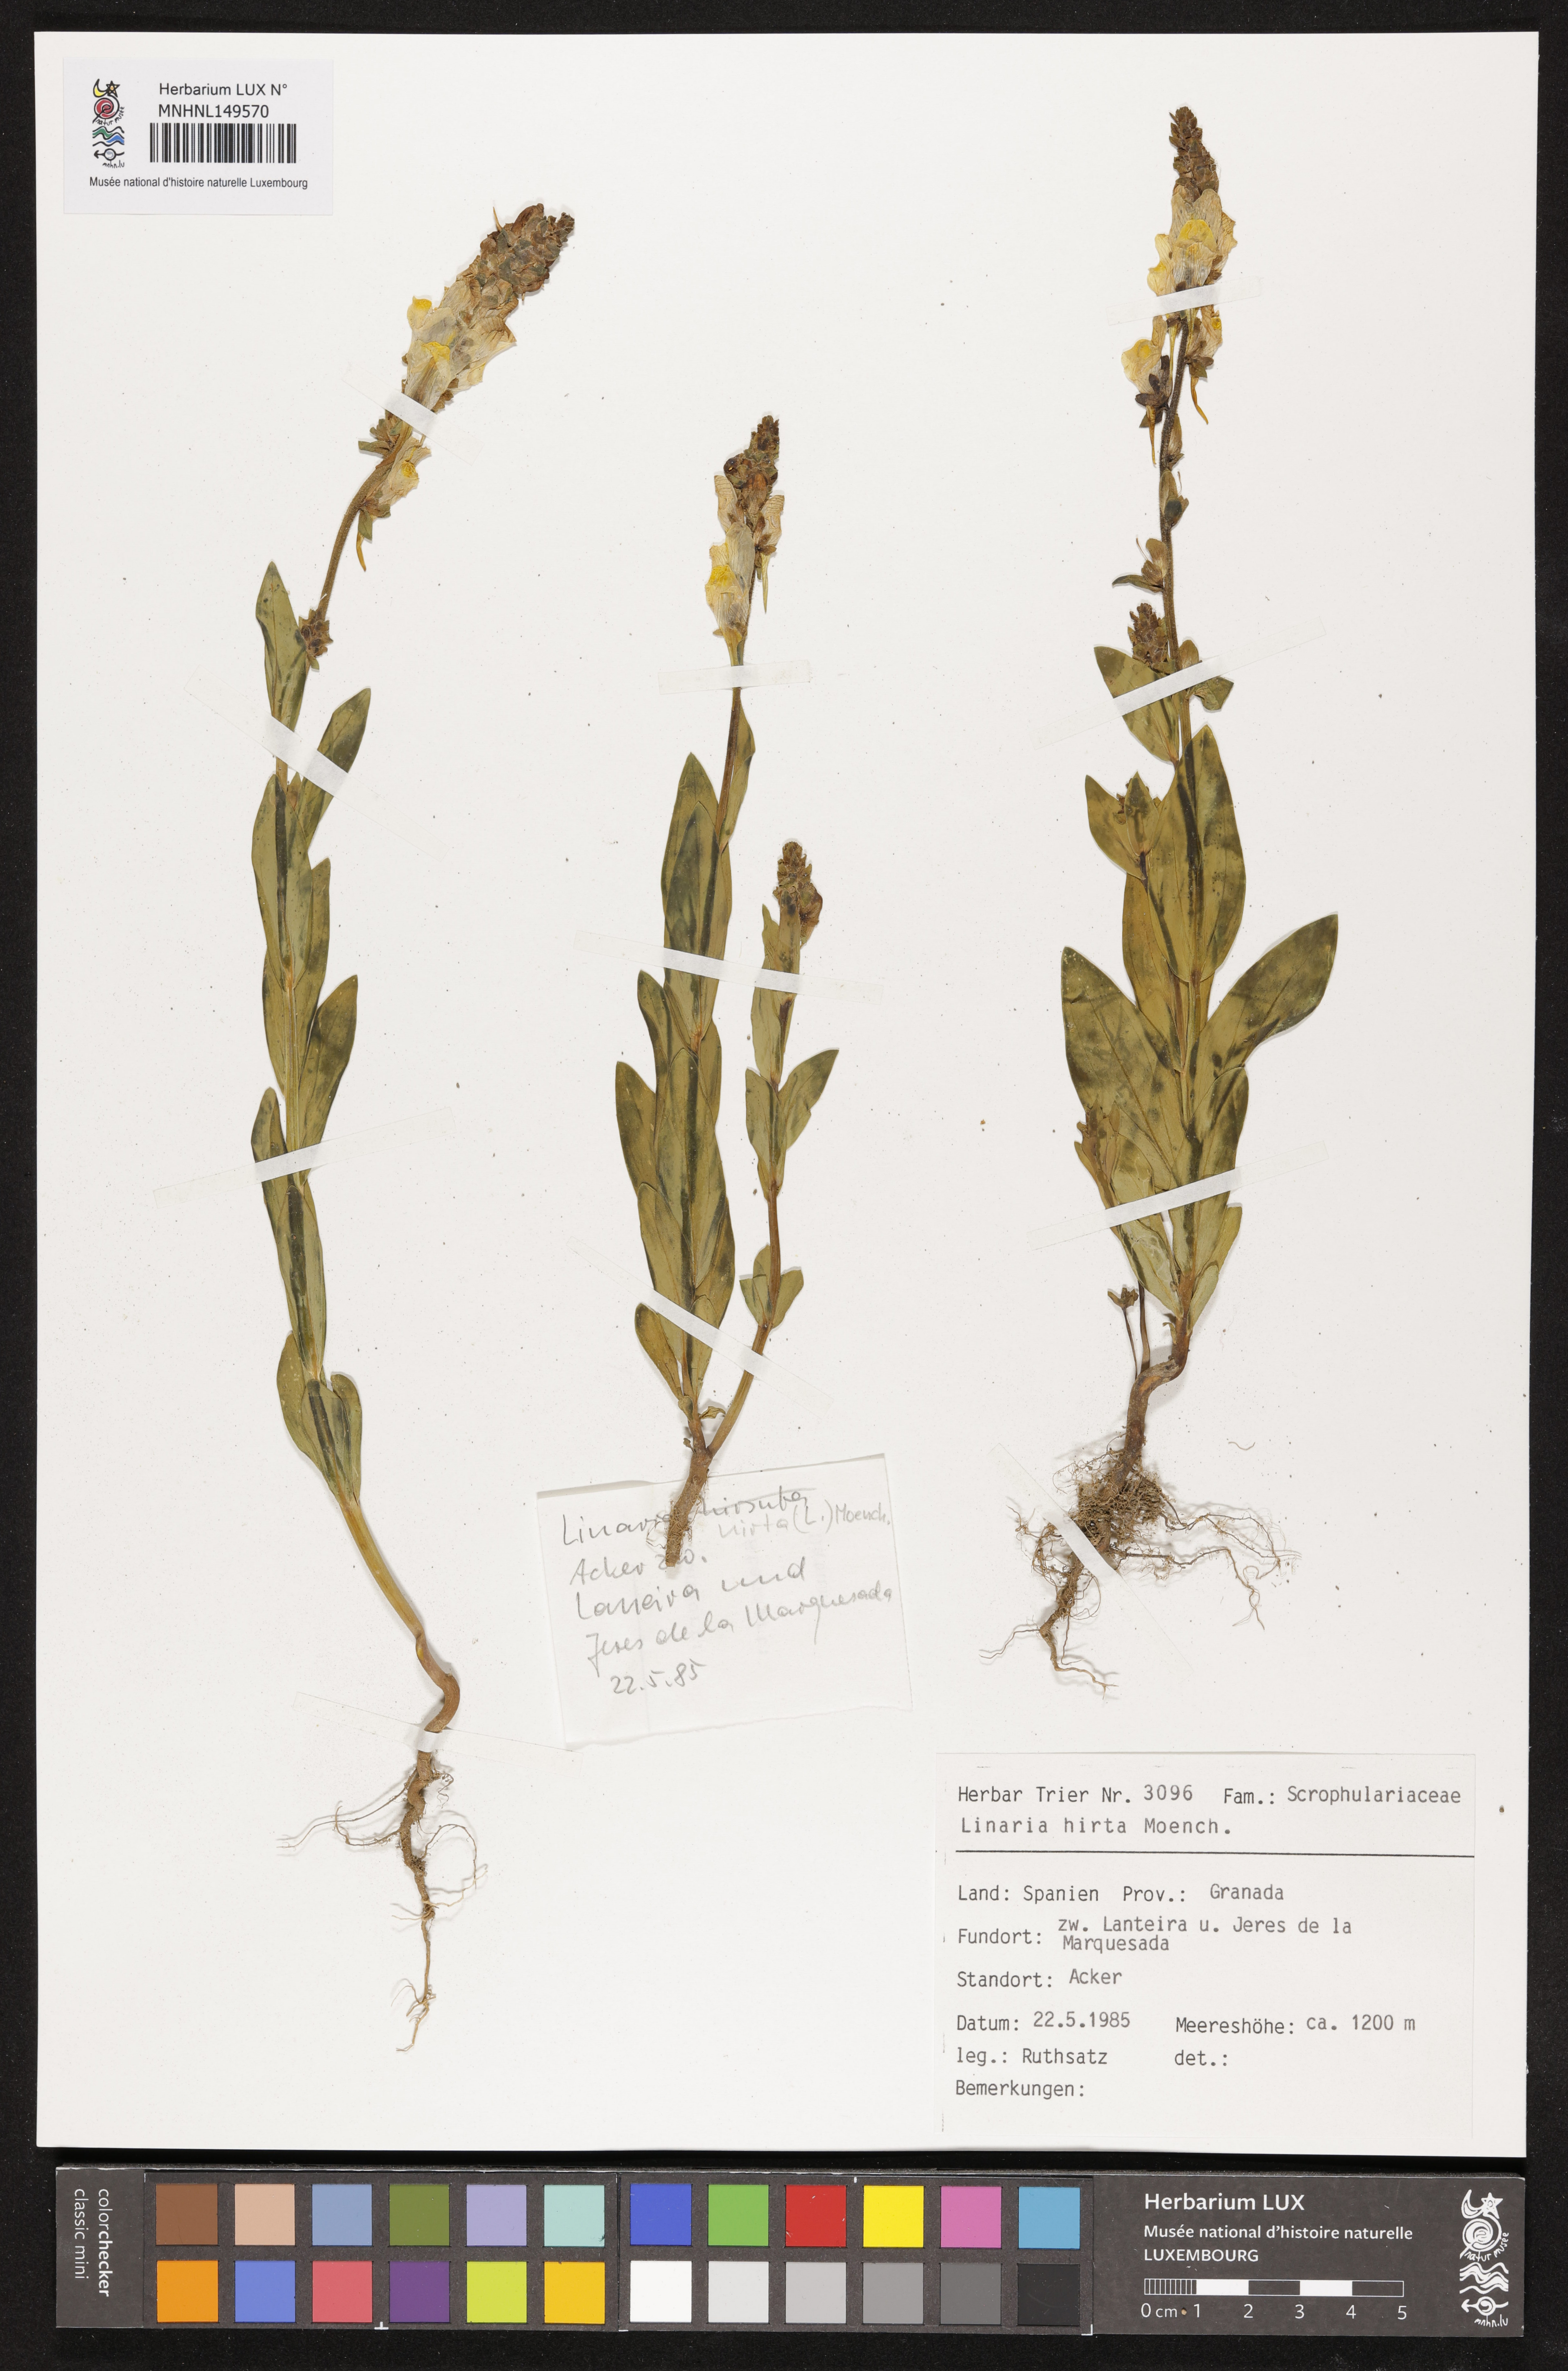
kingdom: Plantae
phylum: Tracheophyta
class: Magnoliopsida
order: Lamiales
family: Plantaginaceae
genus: Linaria
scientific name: Linaria hirta
